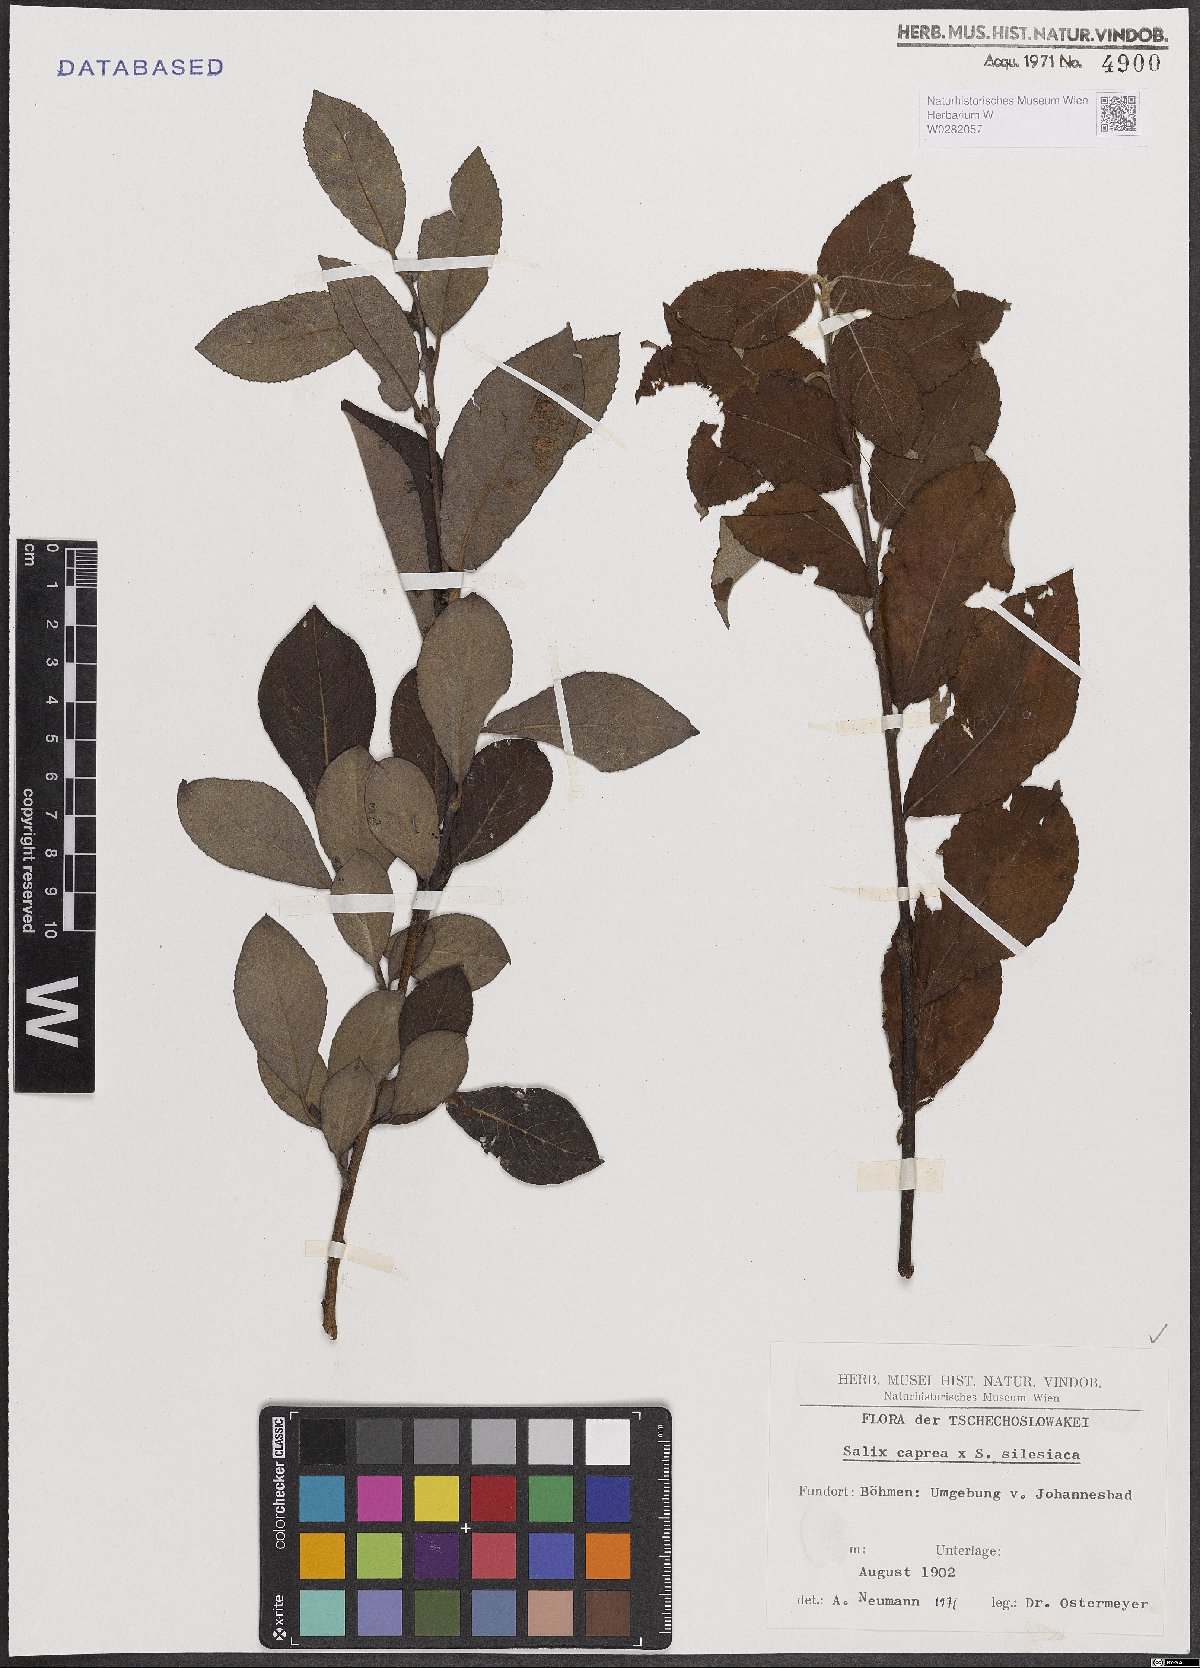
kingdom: Plantae
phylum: Tracheophyta
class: Magnoliopsida
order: Malpighiales
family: Salicaceae
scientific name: Salicaceae
